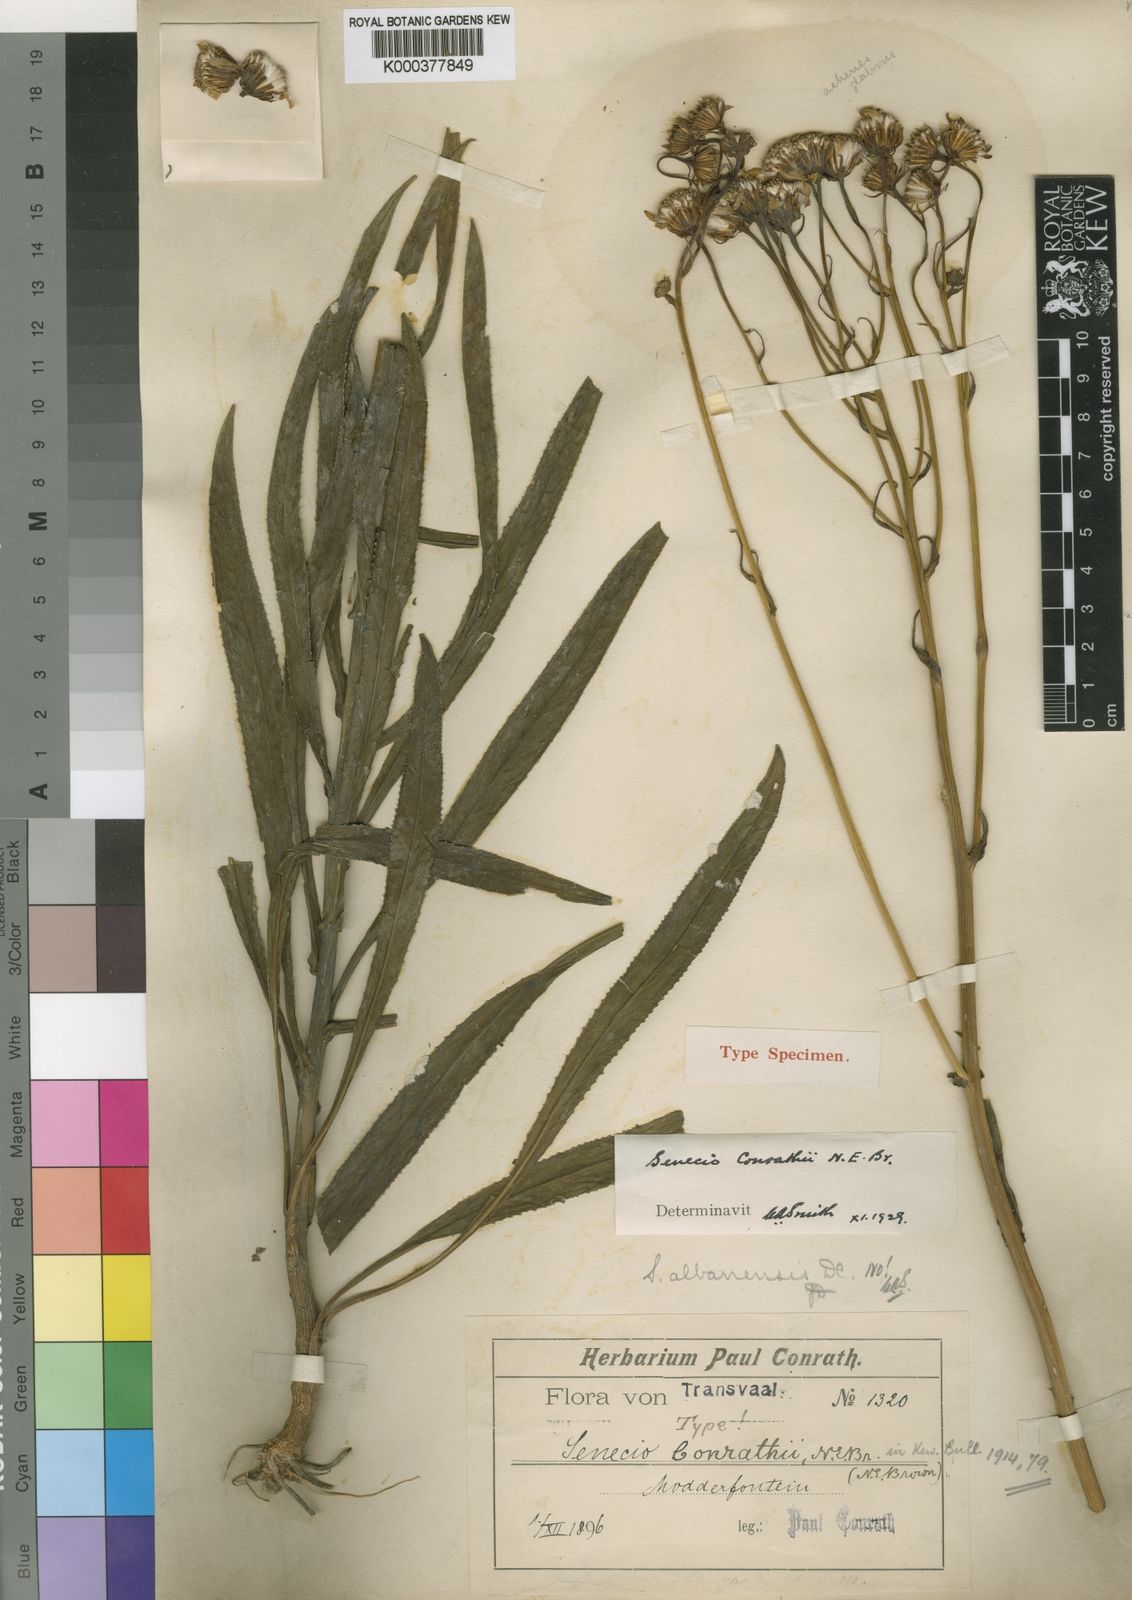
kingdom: Plantae
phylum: Tracheophyta
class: Magnoliopsida
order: Asterales
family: Asteraceae
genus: Senecio
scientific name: Senecio conrathii
